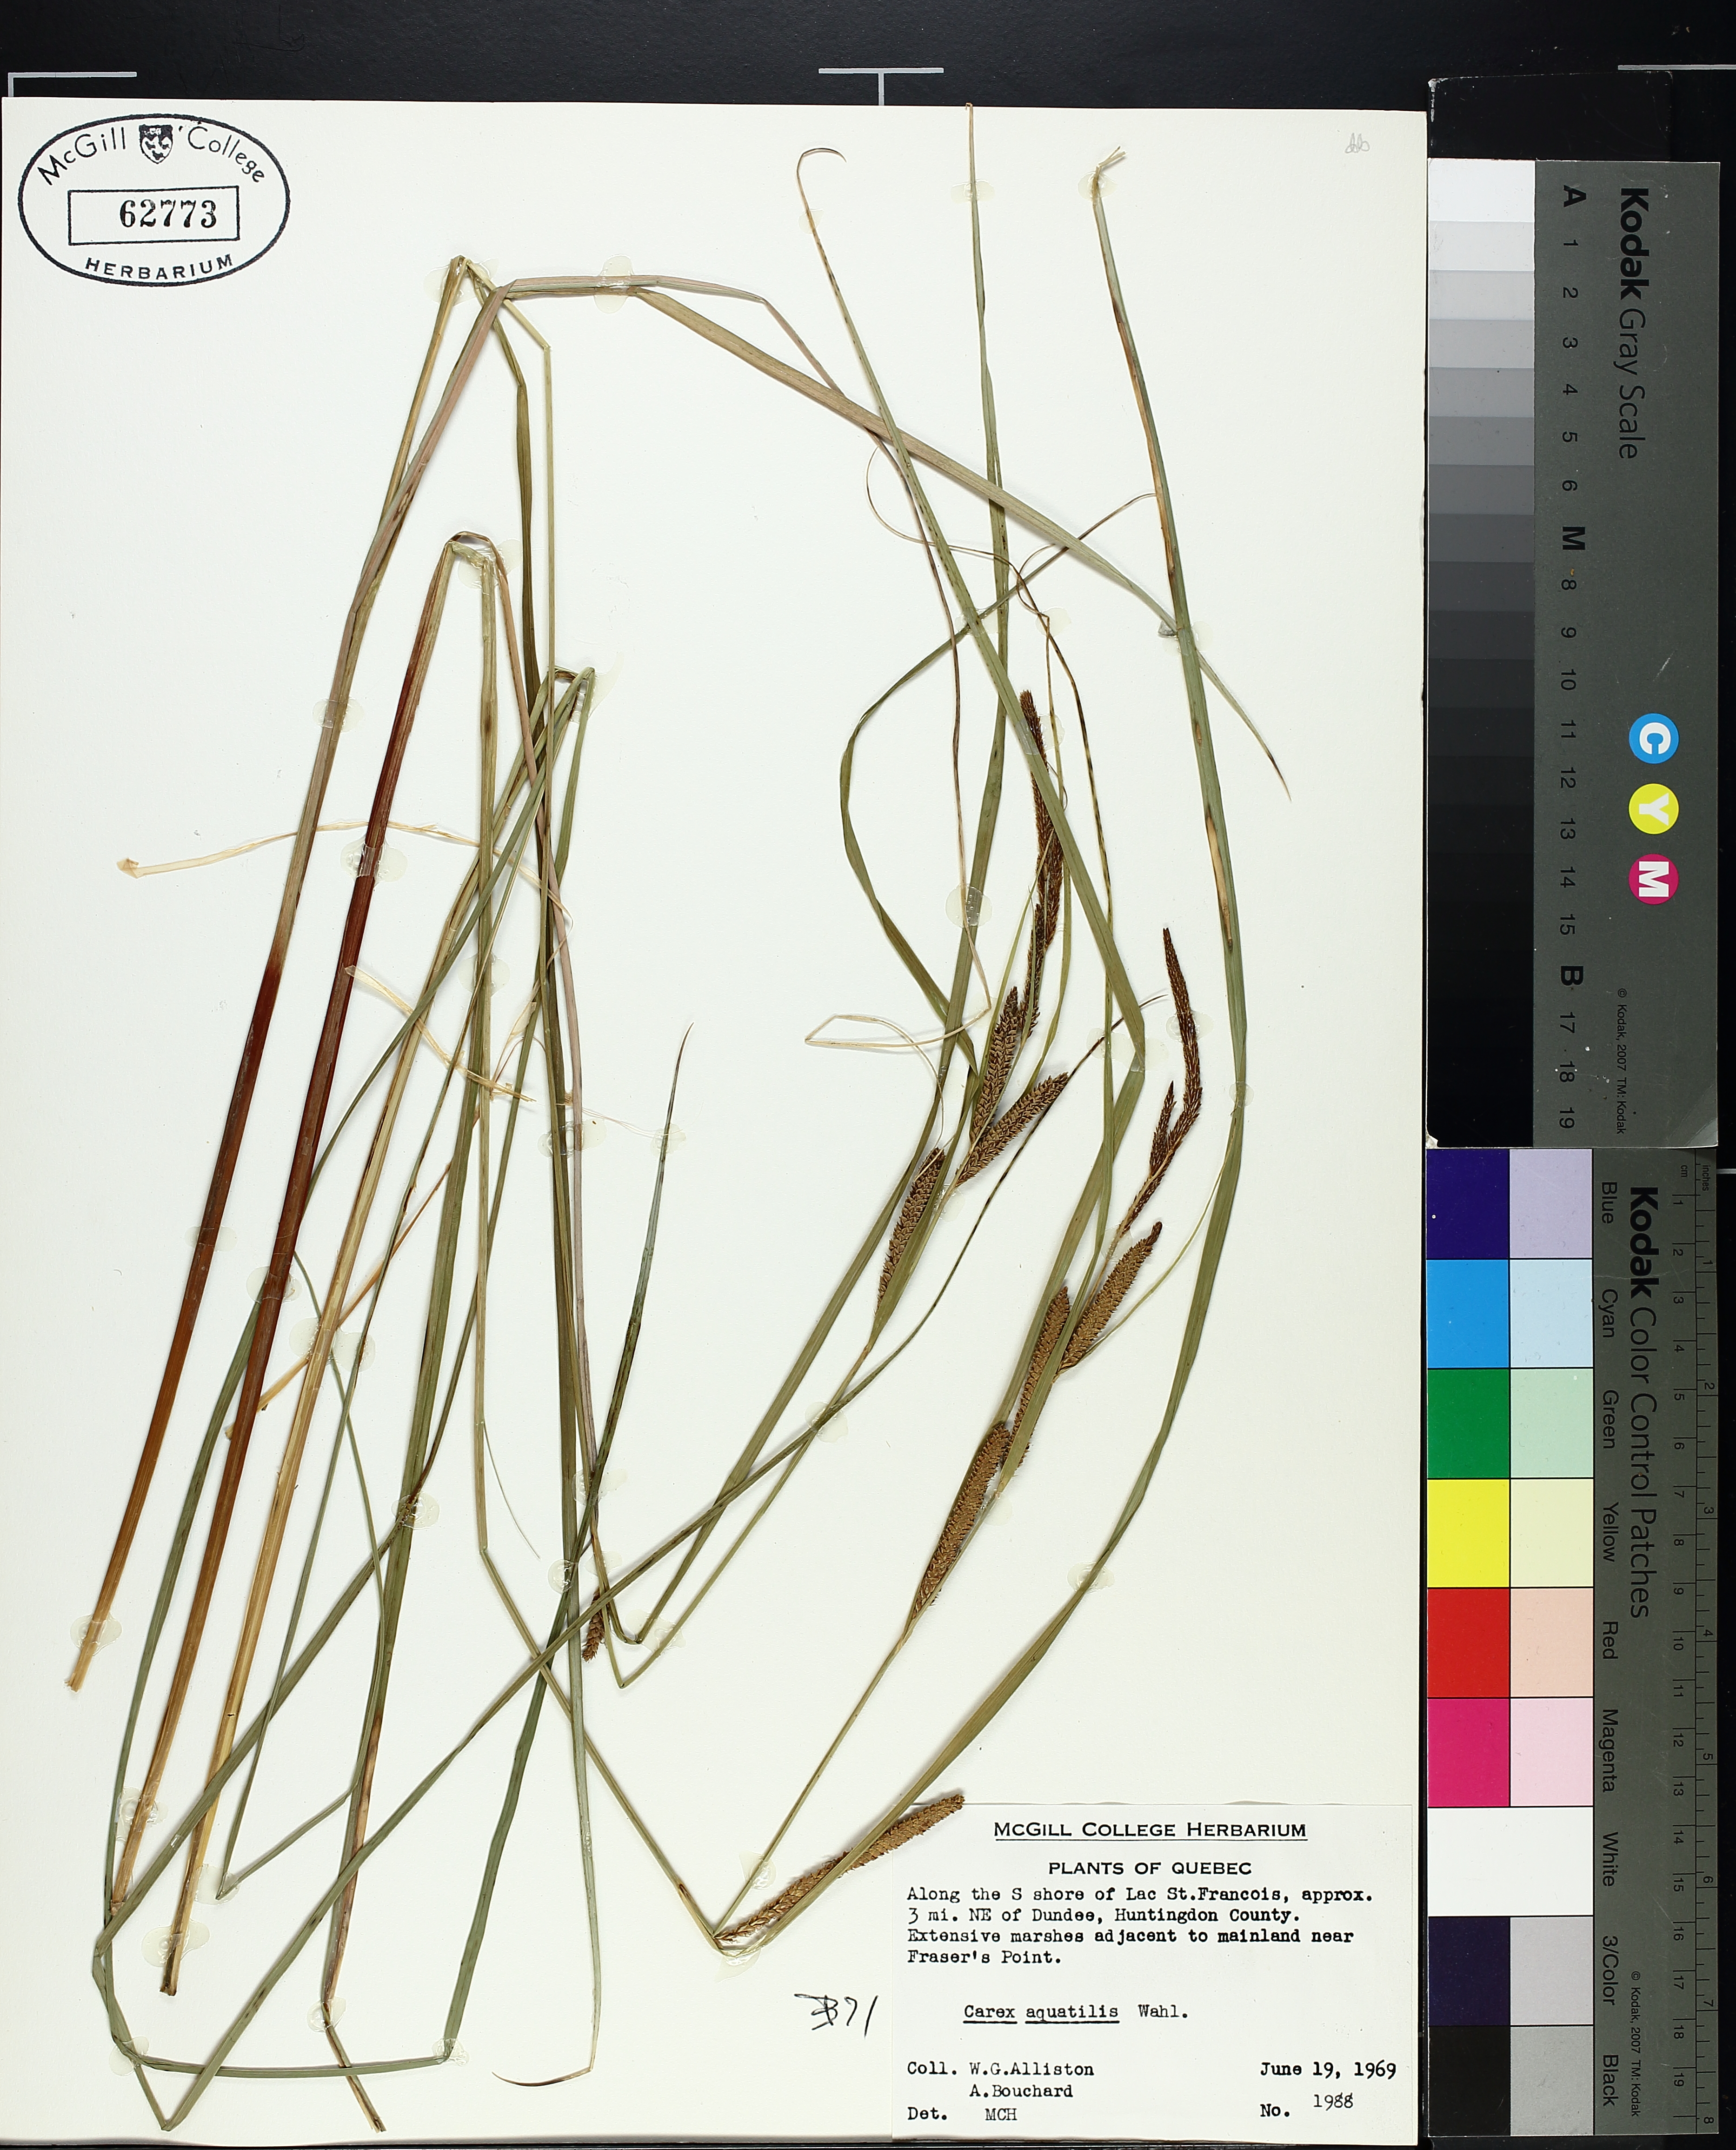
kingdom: Plantae
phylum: Tracheophyta
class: Liliopsida
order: Poales
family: Cyperaceae
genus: Carex
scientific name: Carex aquatilis
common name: Water sedge
